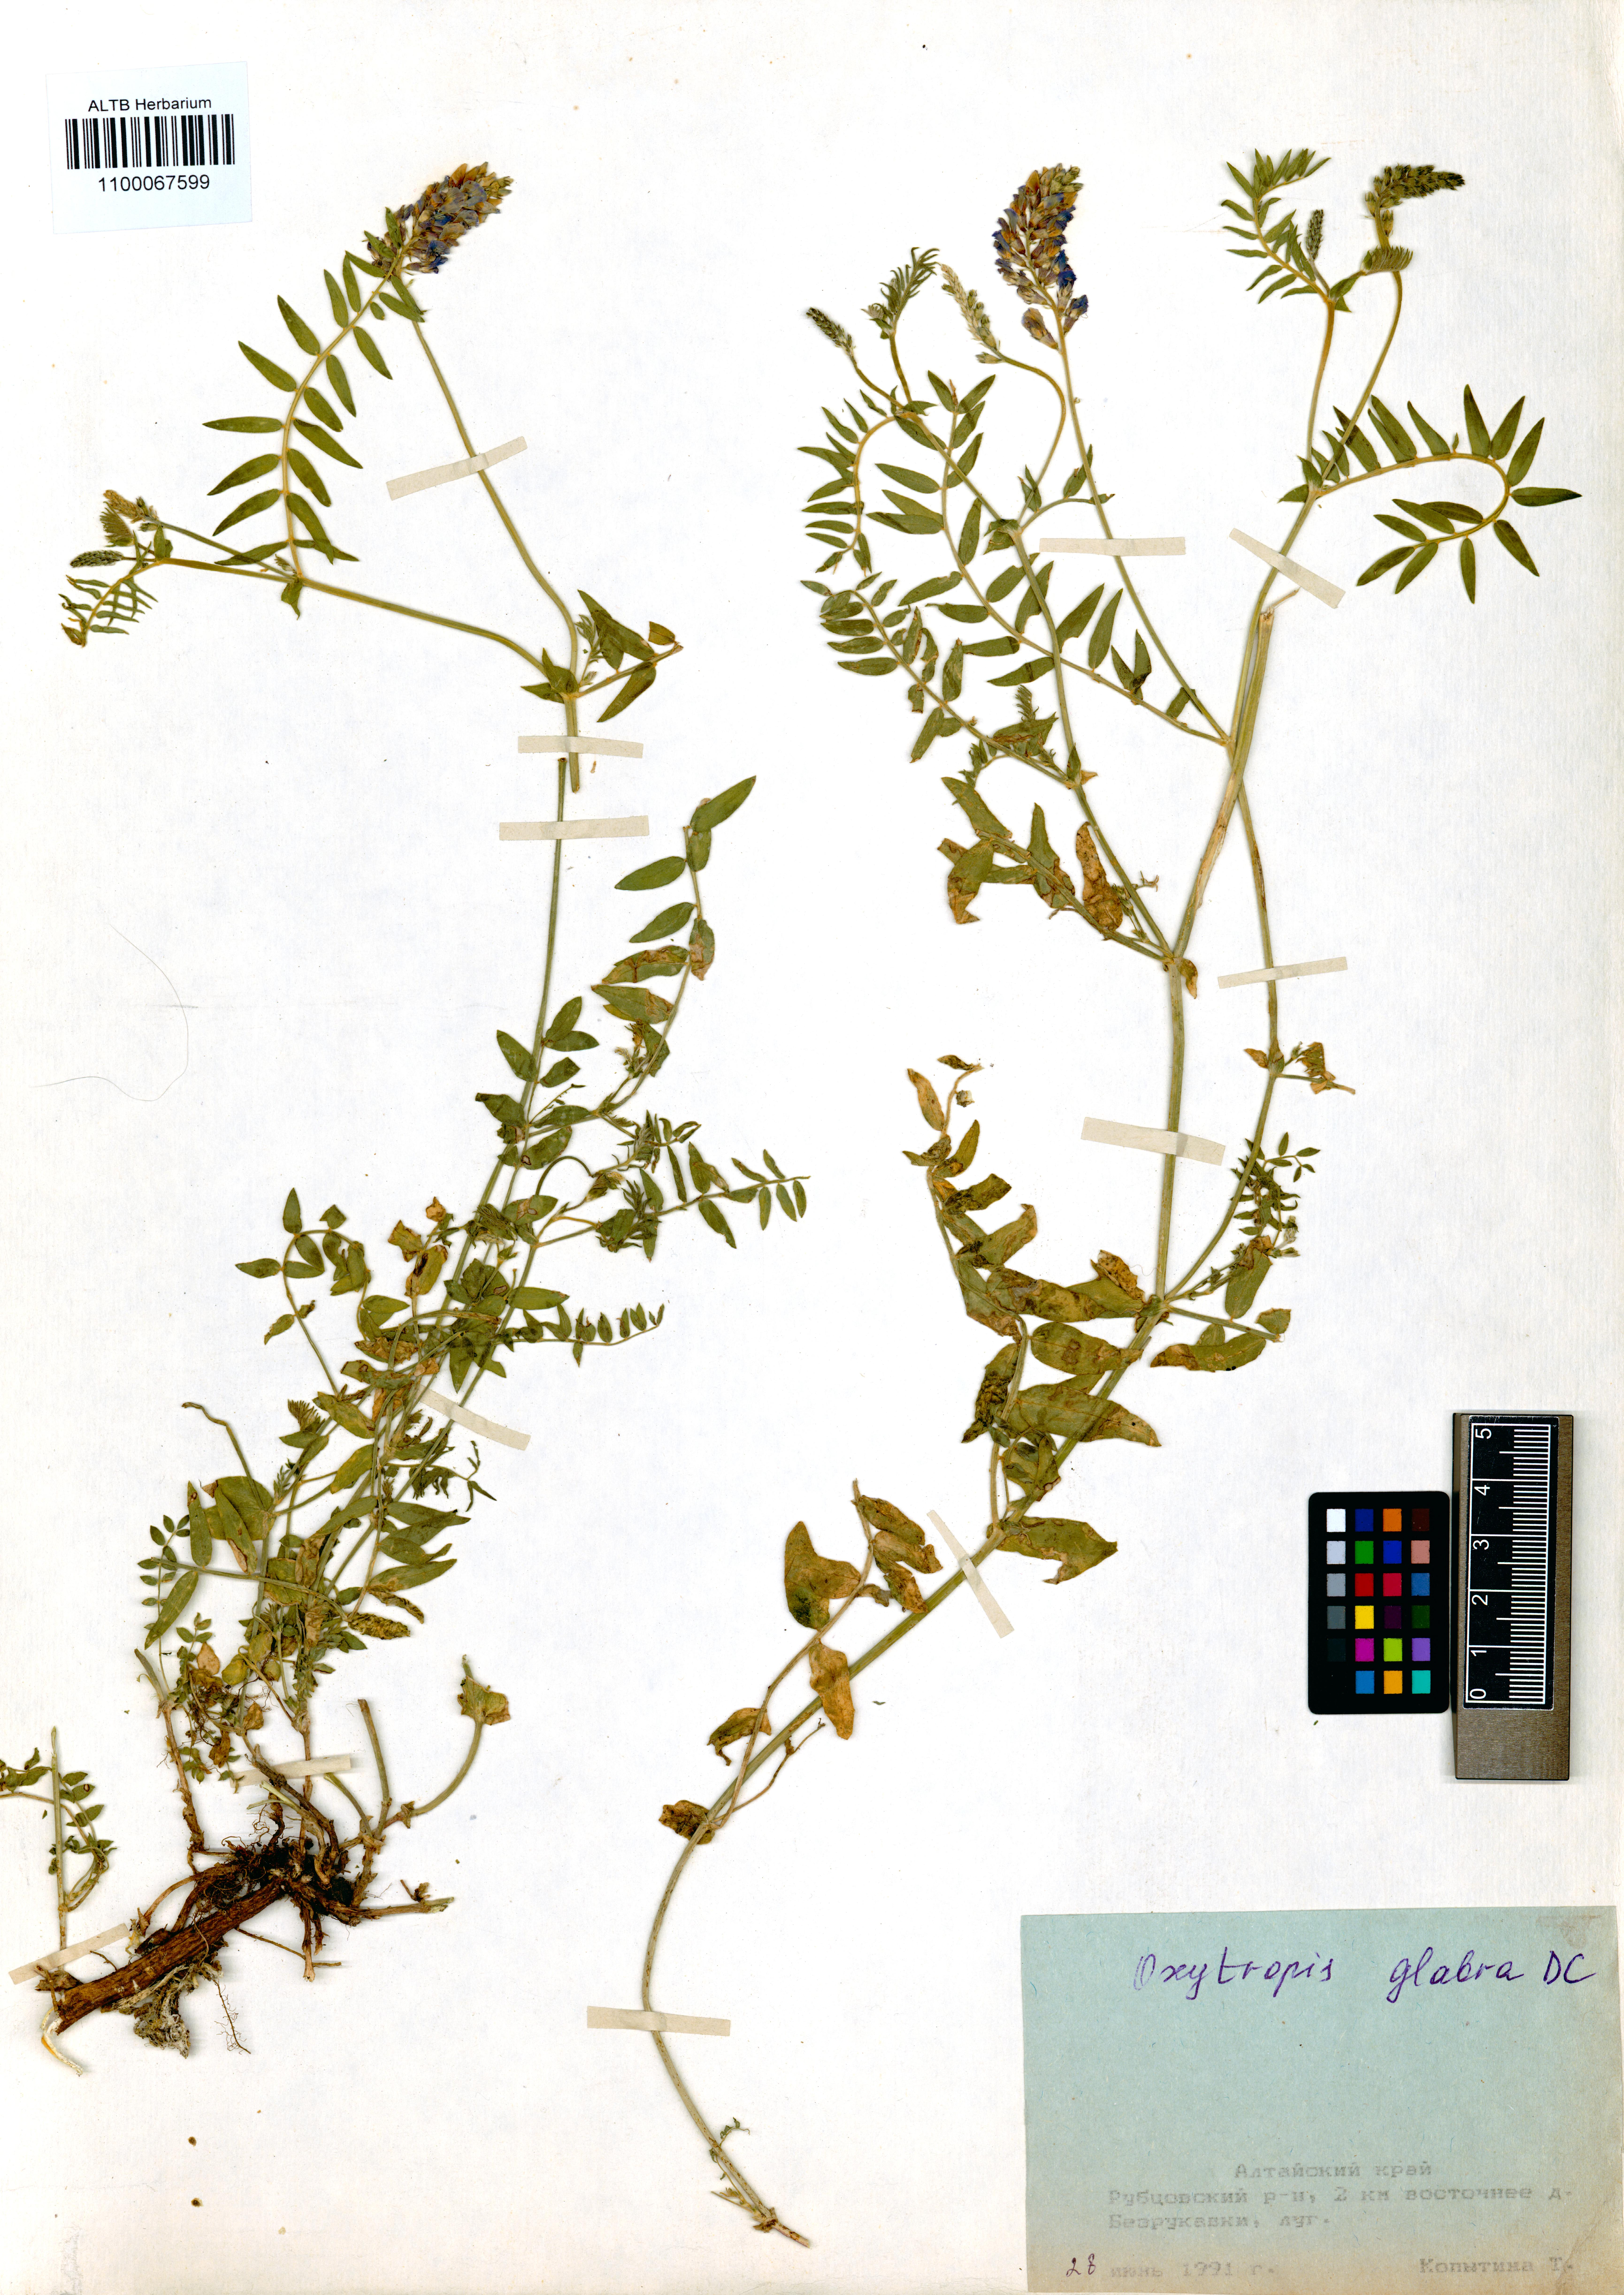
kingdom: Plantae
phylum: Tracheophyta
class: Magnoliopsida
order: Fabales
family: Fabaceae
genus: Oxytropis
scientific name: Oxytropis glabra
